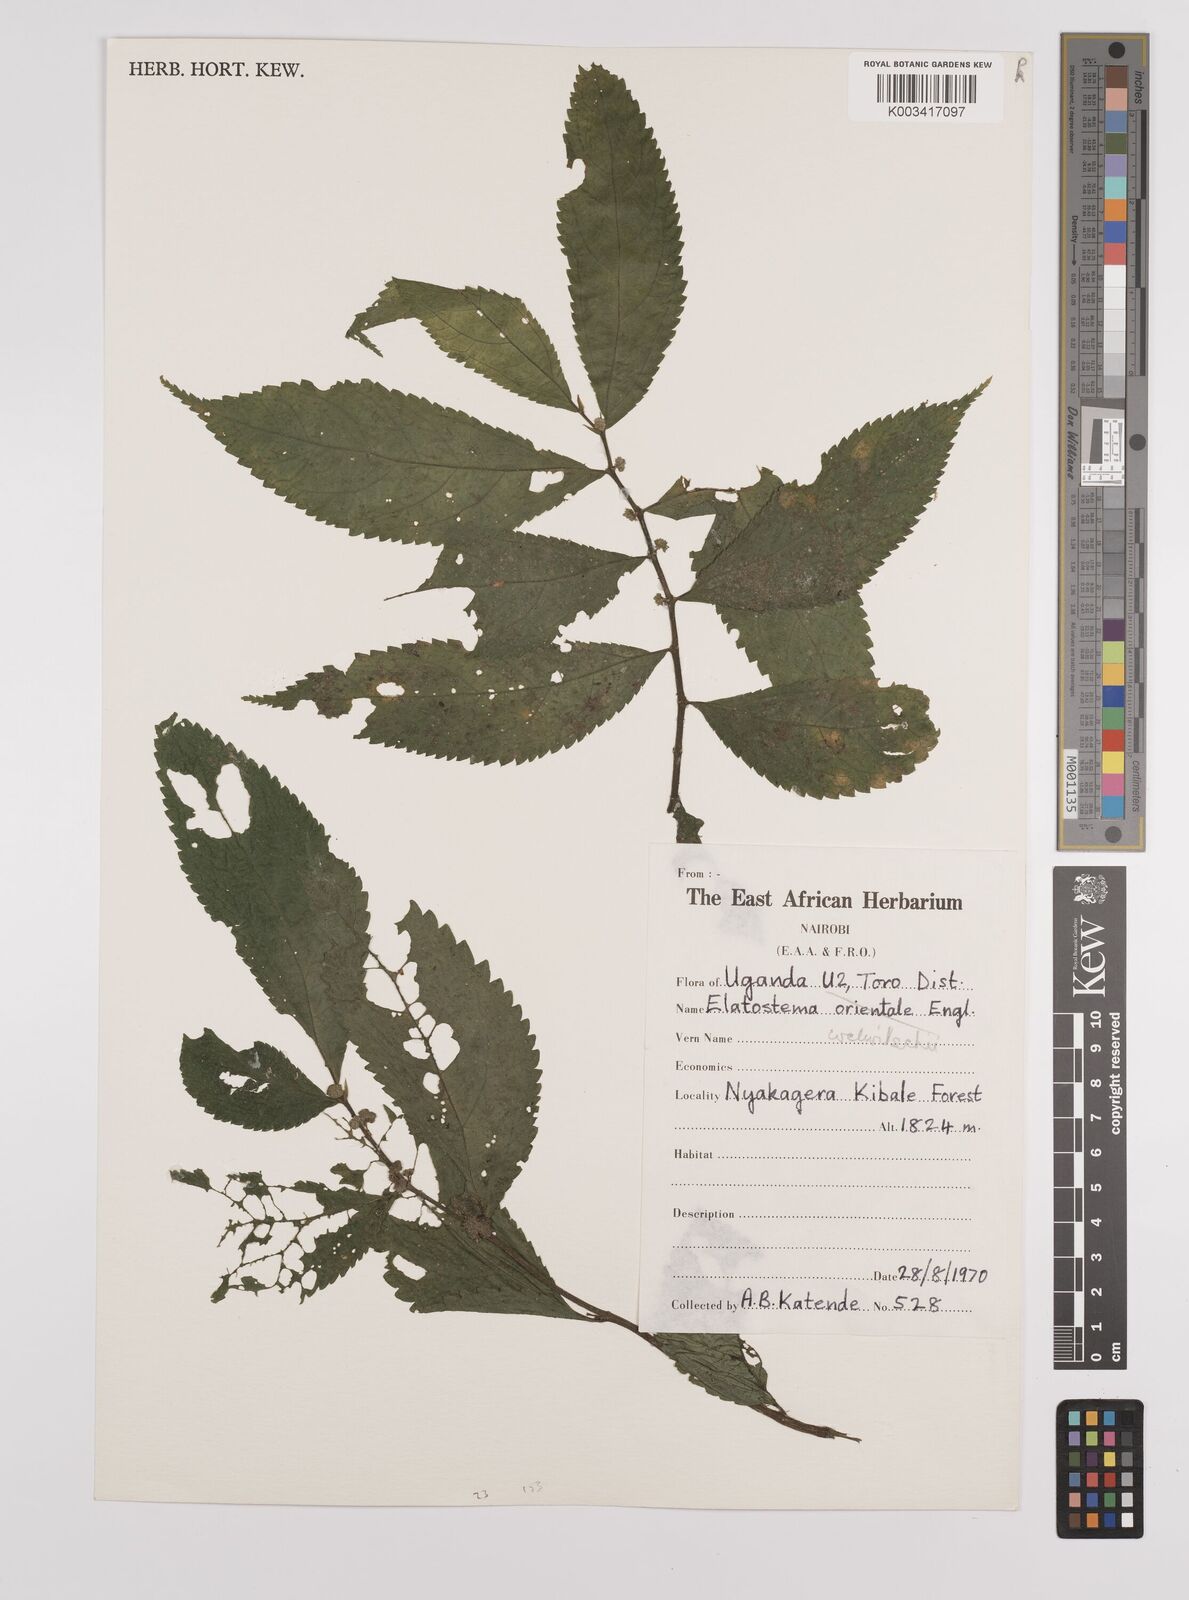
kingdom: Plantae
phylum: Tracheophyta
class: Magnoliopsida
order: Rosales
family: Urticaceae
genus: Elatostema
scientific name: Elatostema welwitschii
